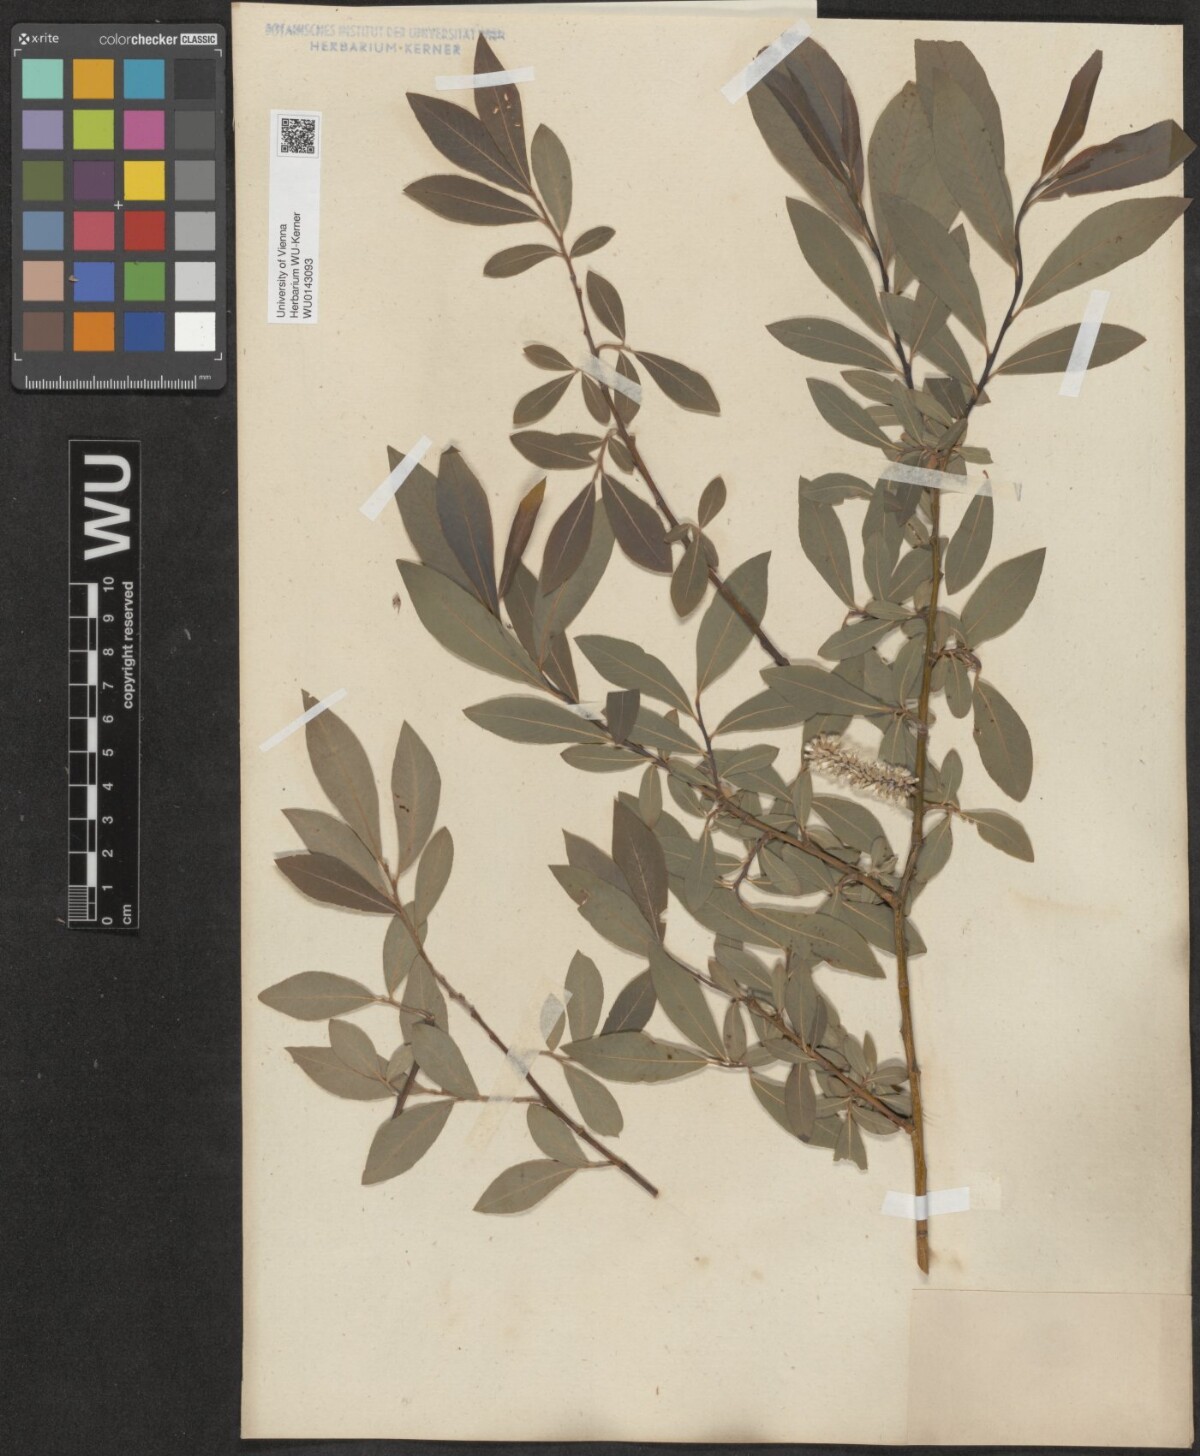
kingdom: Plantae
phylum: Tracheophyta
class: Magnoliopsida
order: Malpighiales
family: Salicaceae
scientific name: Salicaceae
